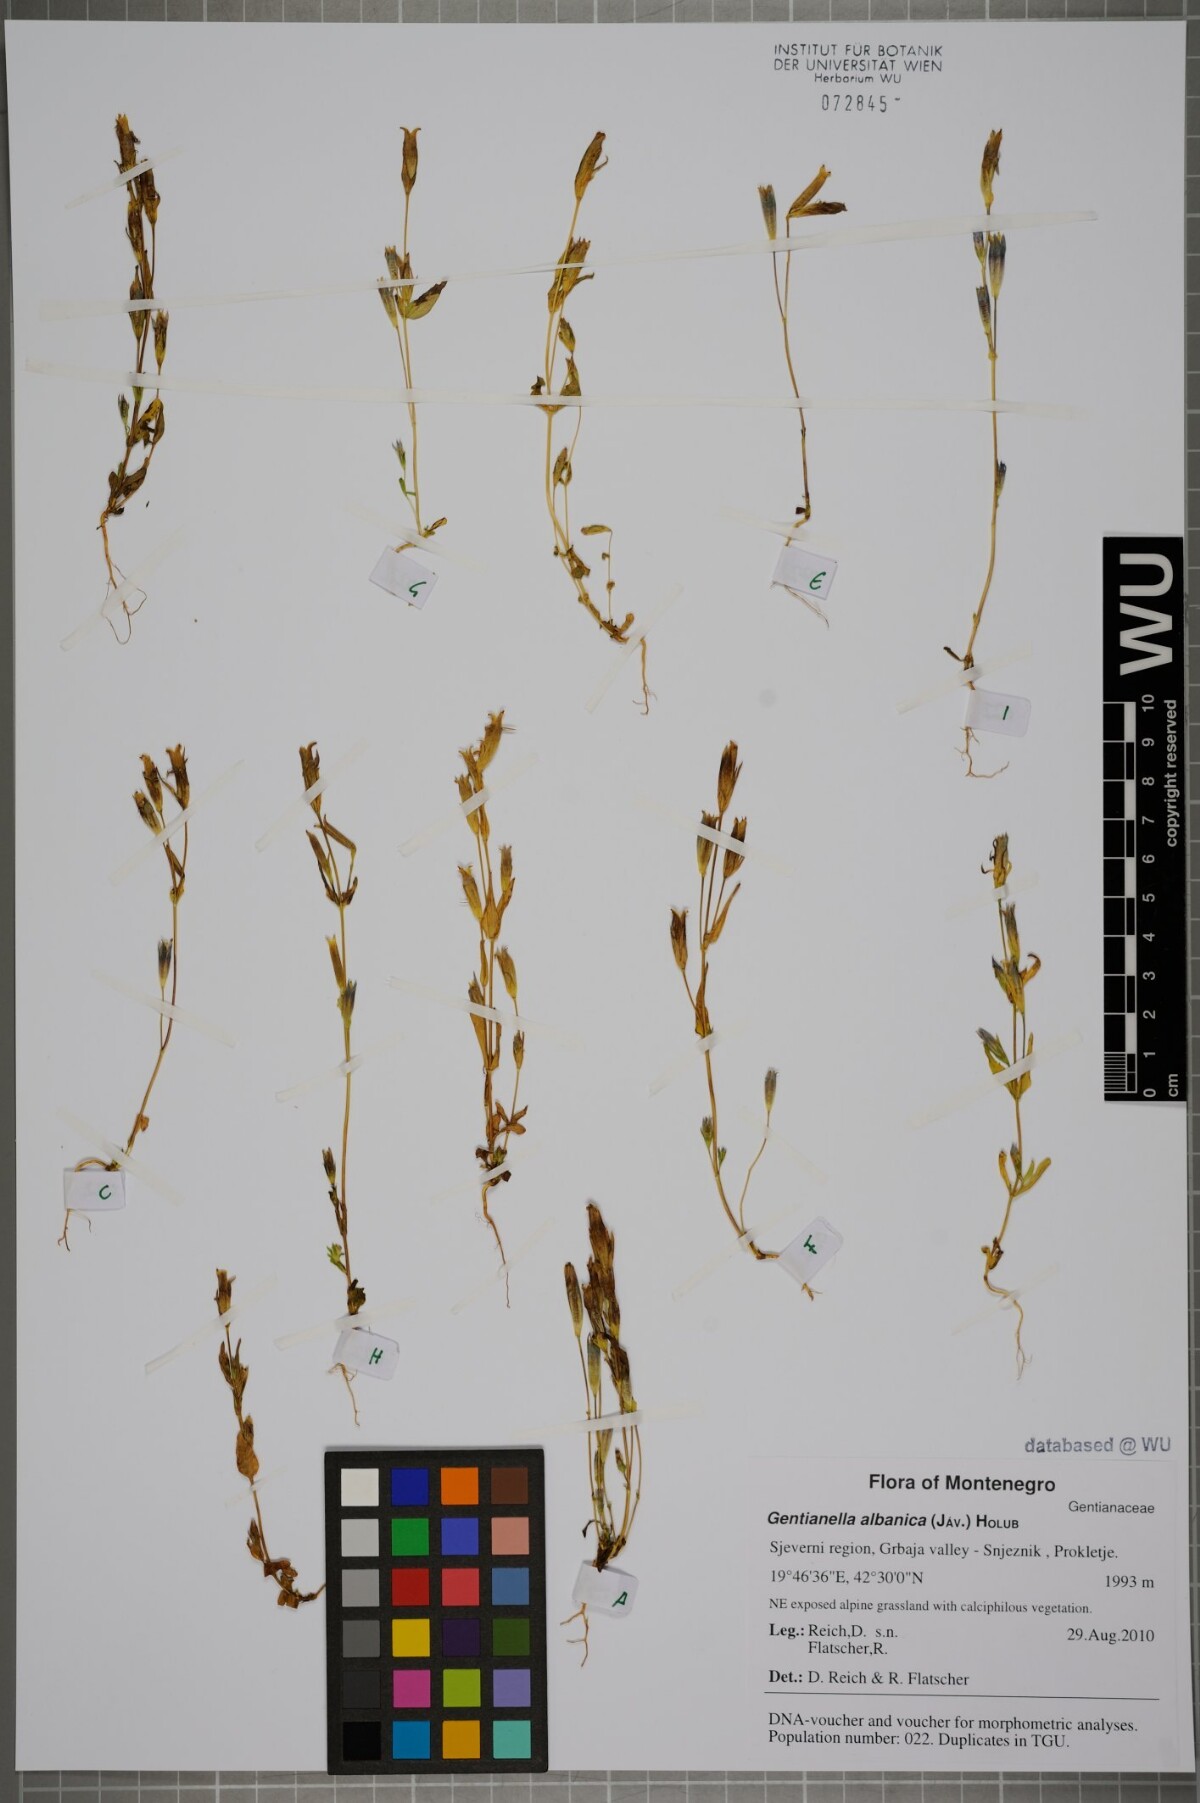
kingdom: Plantae
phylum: Tracheophyta
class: Magnoliopsida
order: Gentianales
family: Gentianaceae
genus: Gentianella
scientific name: Gentianella albanica
